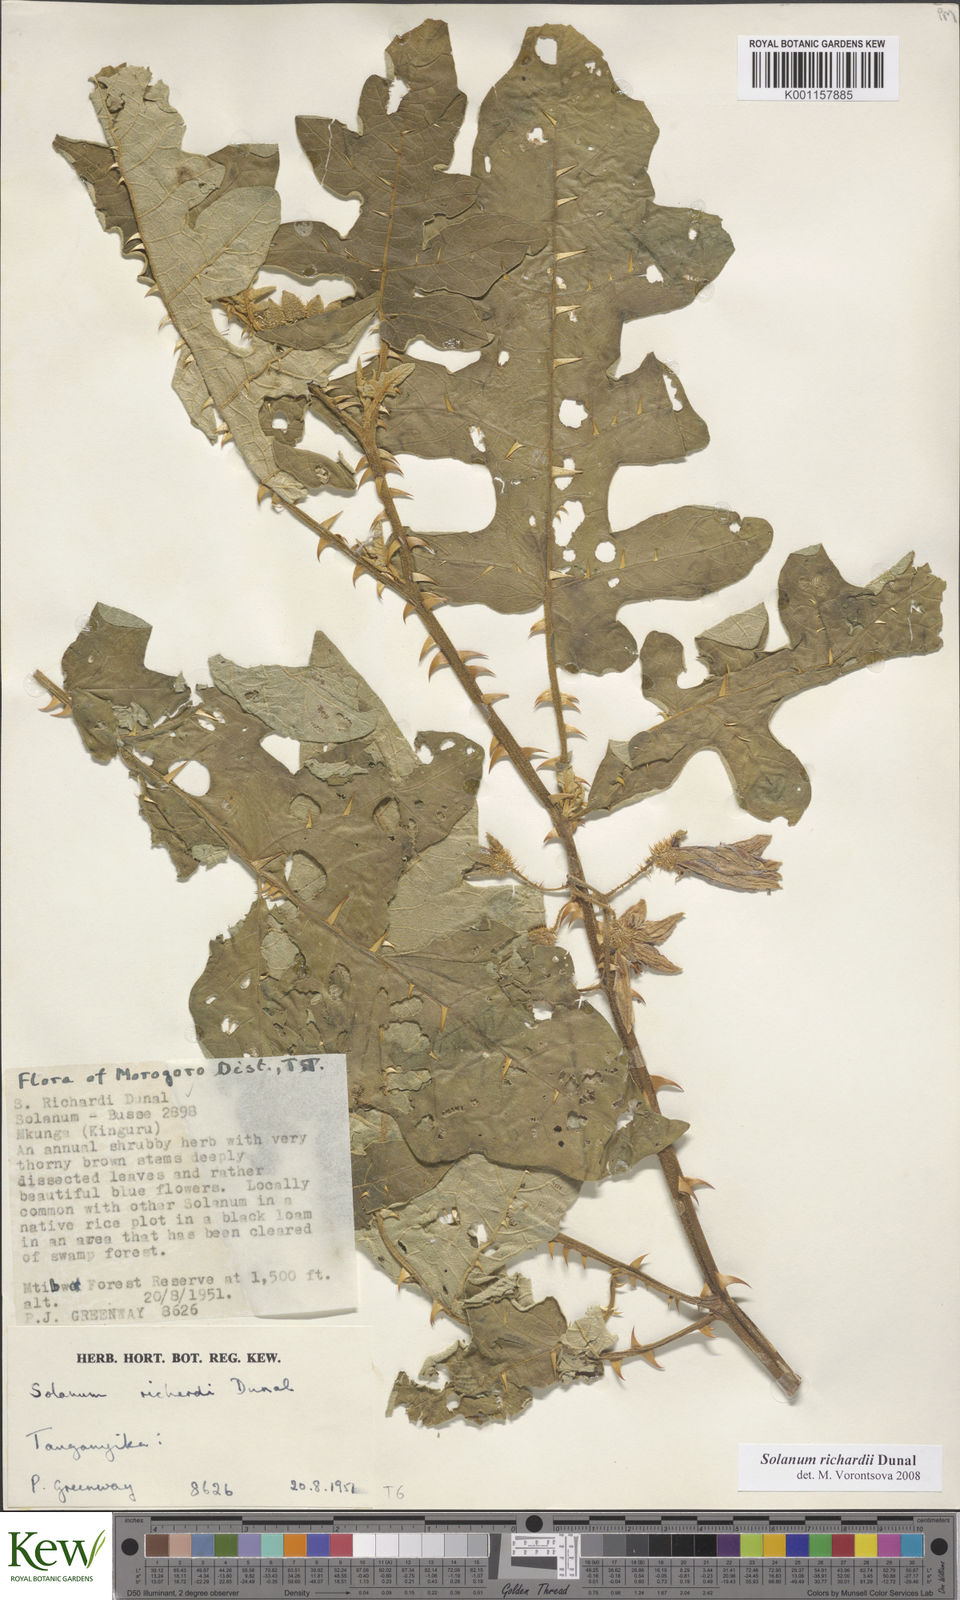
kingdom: Plantae
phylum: Tracheophyta
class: Magnoliopsida
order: Solanales
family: Solanaceae
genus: Solanum
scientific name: Solanum richardii
